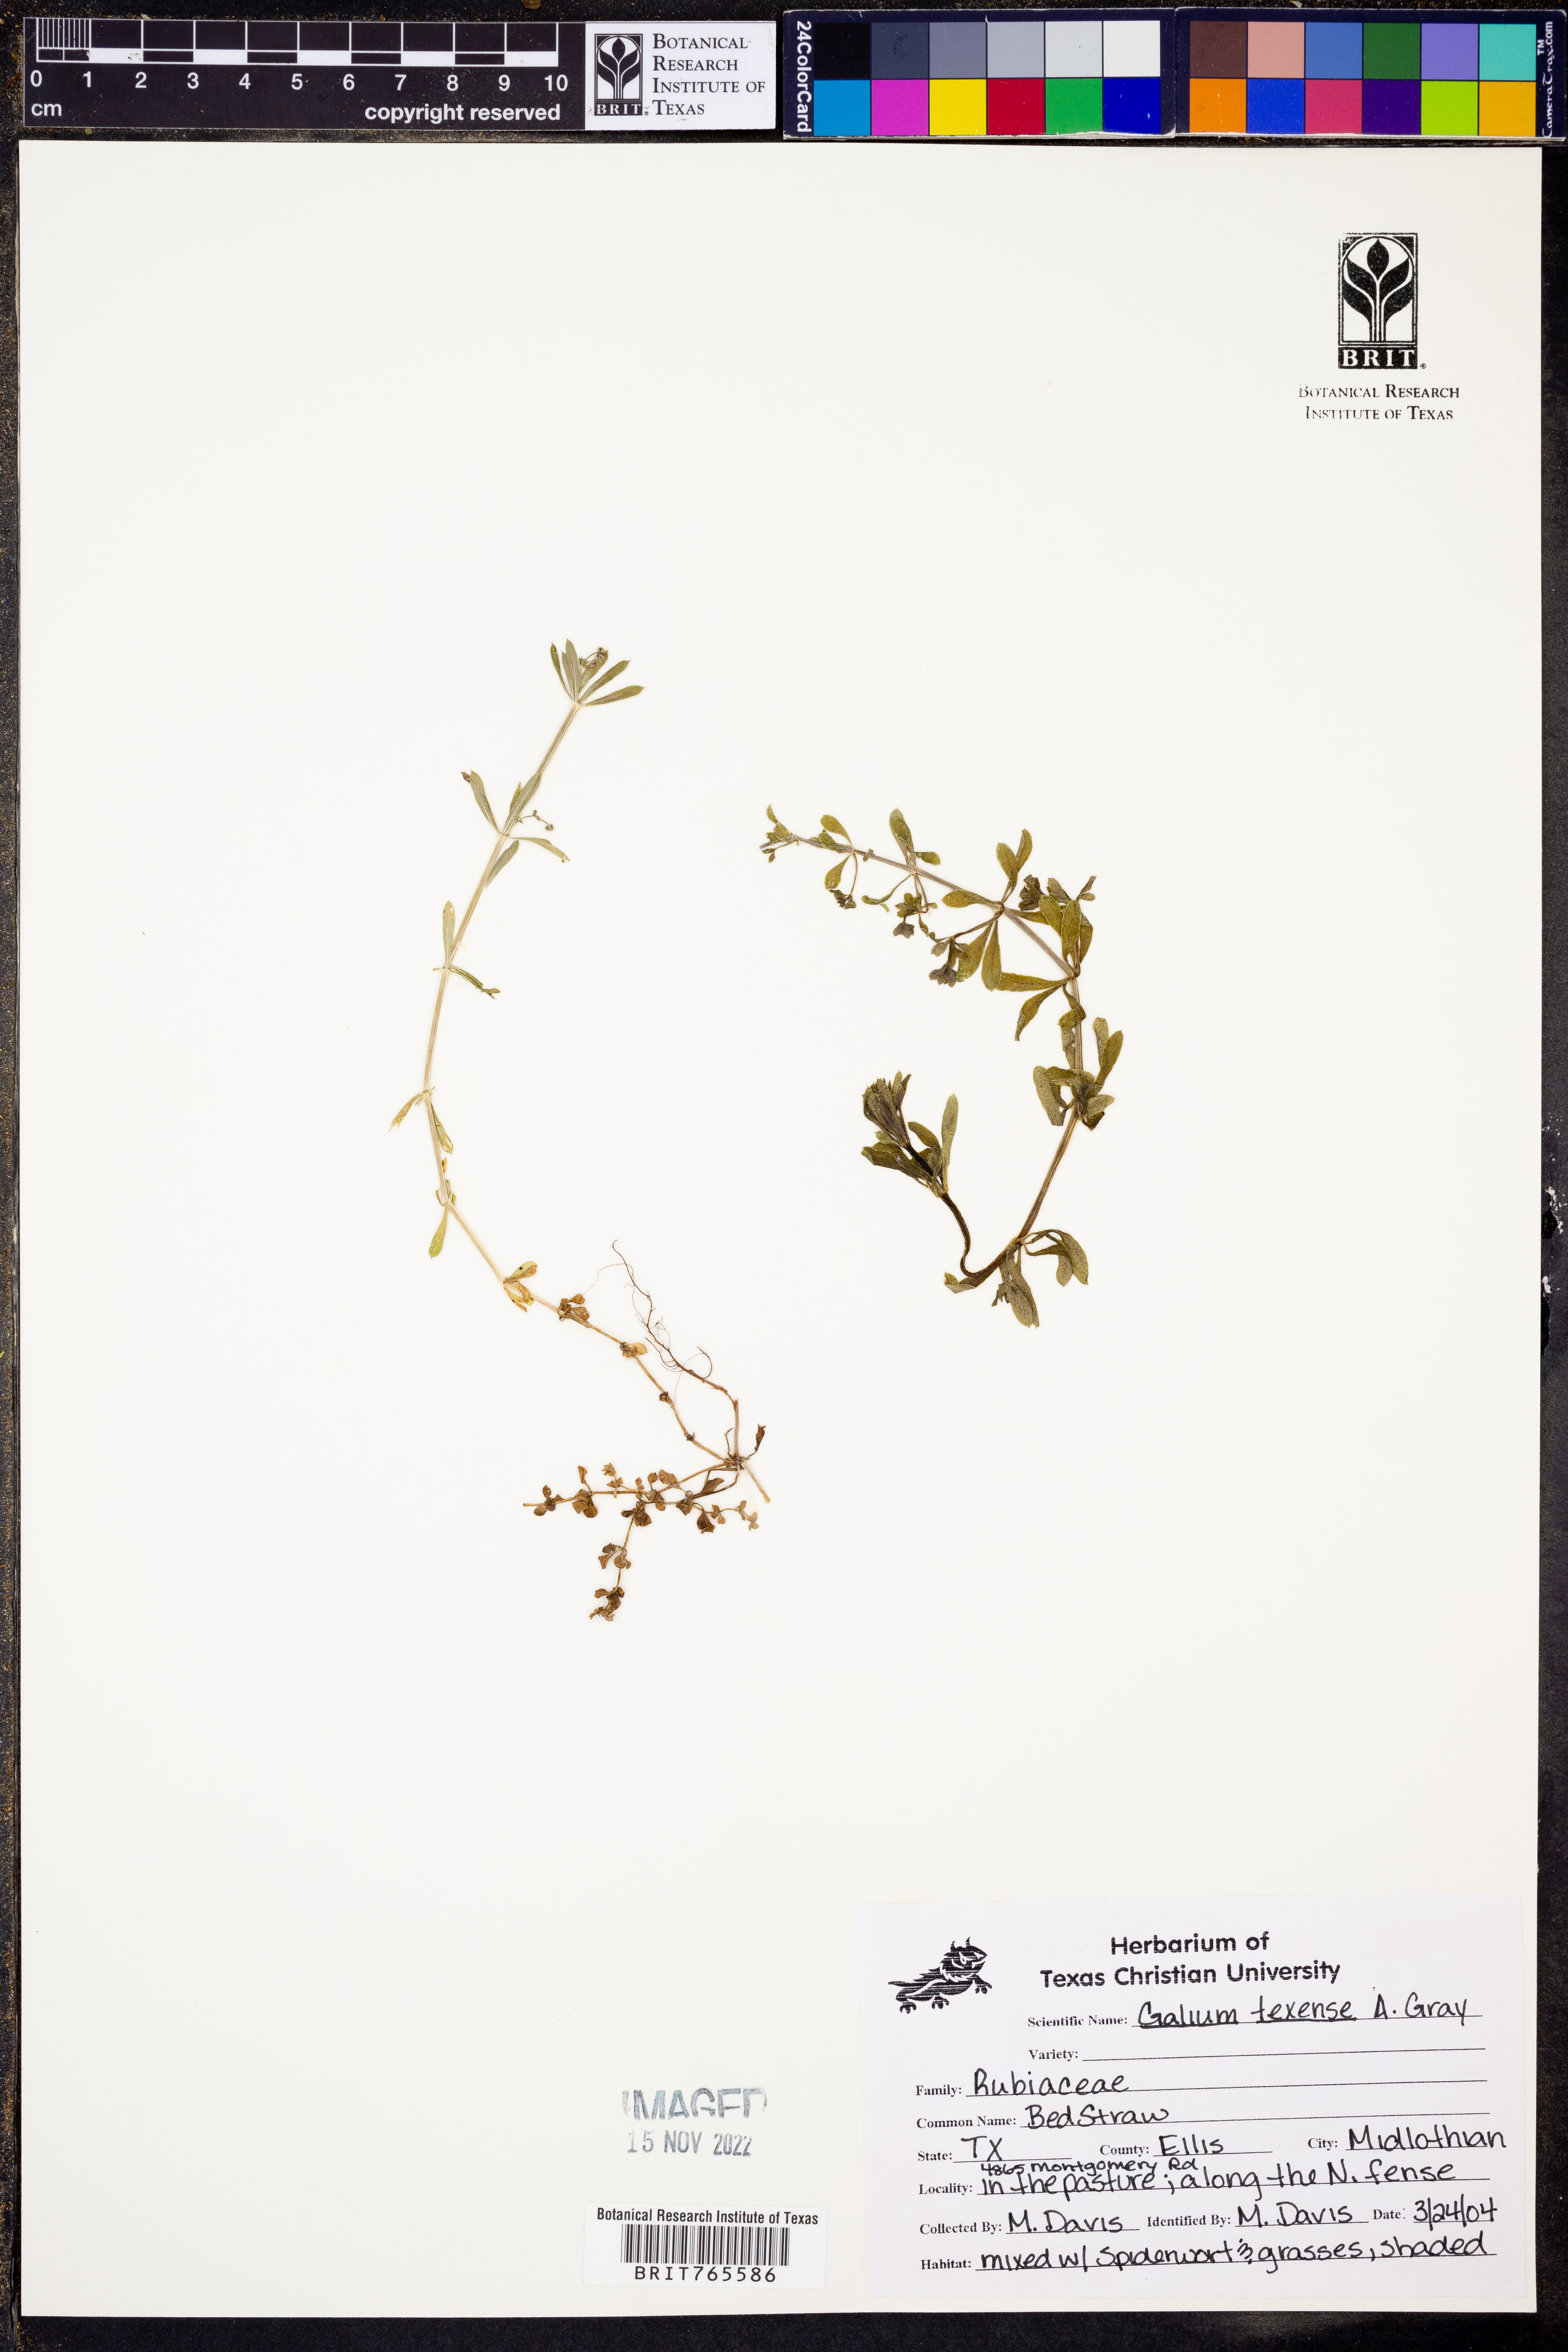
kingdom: Plantae
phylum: Tracheophyta
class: Magnoliopsida
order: Gentianales
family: Rubiaceae
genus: Galium
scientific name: Galium texense
